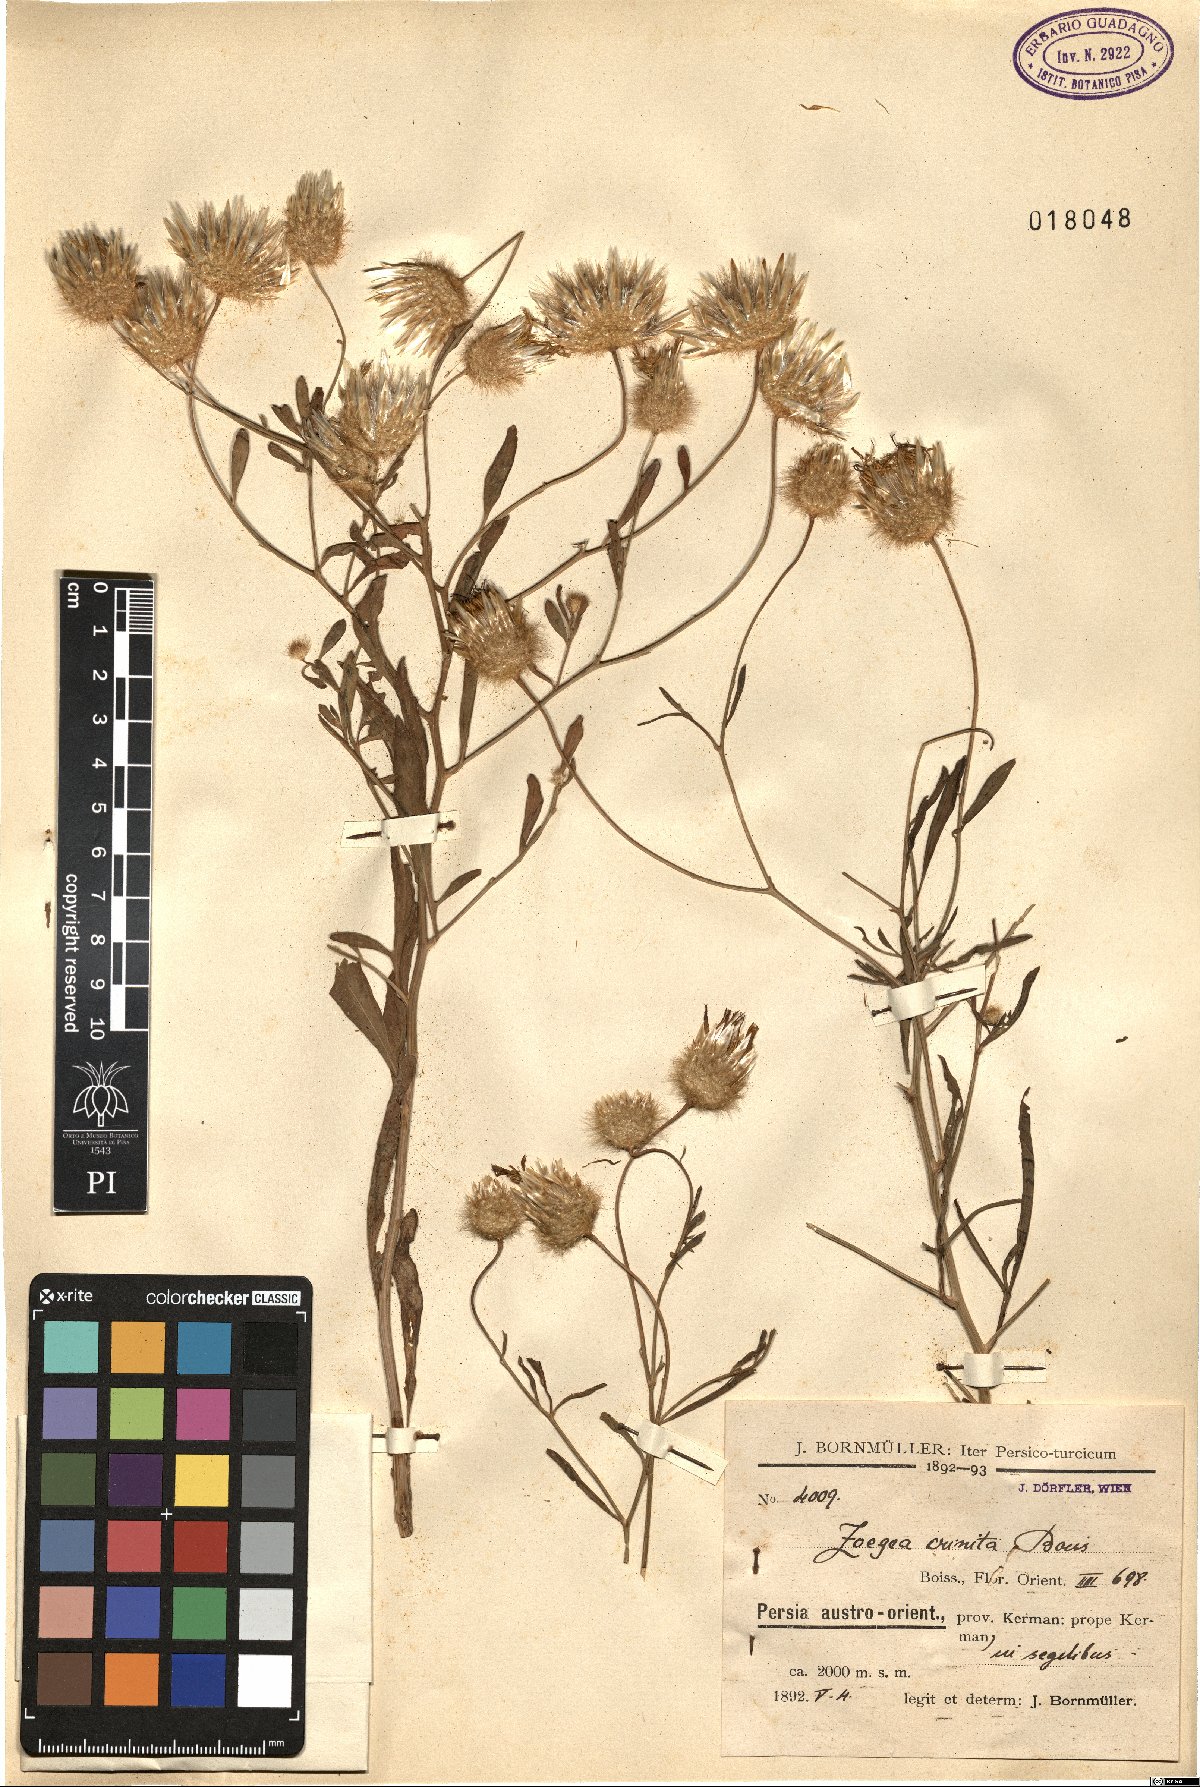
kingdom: Plantae
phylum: Tracheophyta
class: Magnoliopsida
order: Asterales
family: Asteraceae
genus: Zoegea
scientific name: Zoegea crinita
